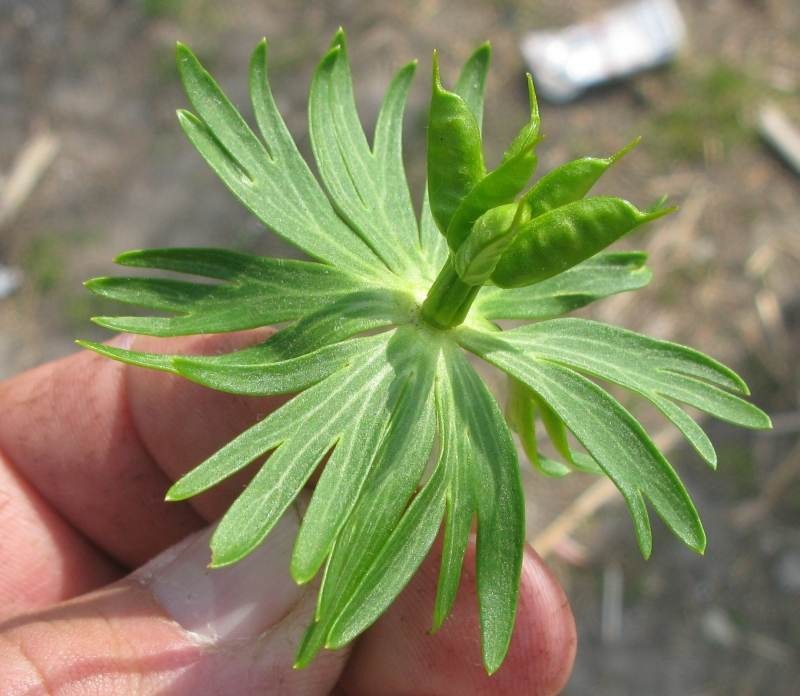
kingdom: Plantae
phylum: Tracheophyta
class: Magnoliopsida
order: Ranunculales
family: Ranunculaceae
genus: Eranthis
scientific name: Eranthis cilicica
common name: Tyrkisk erantis
